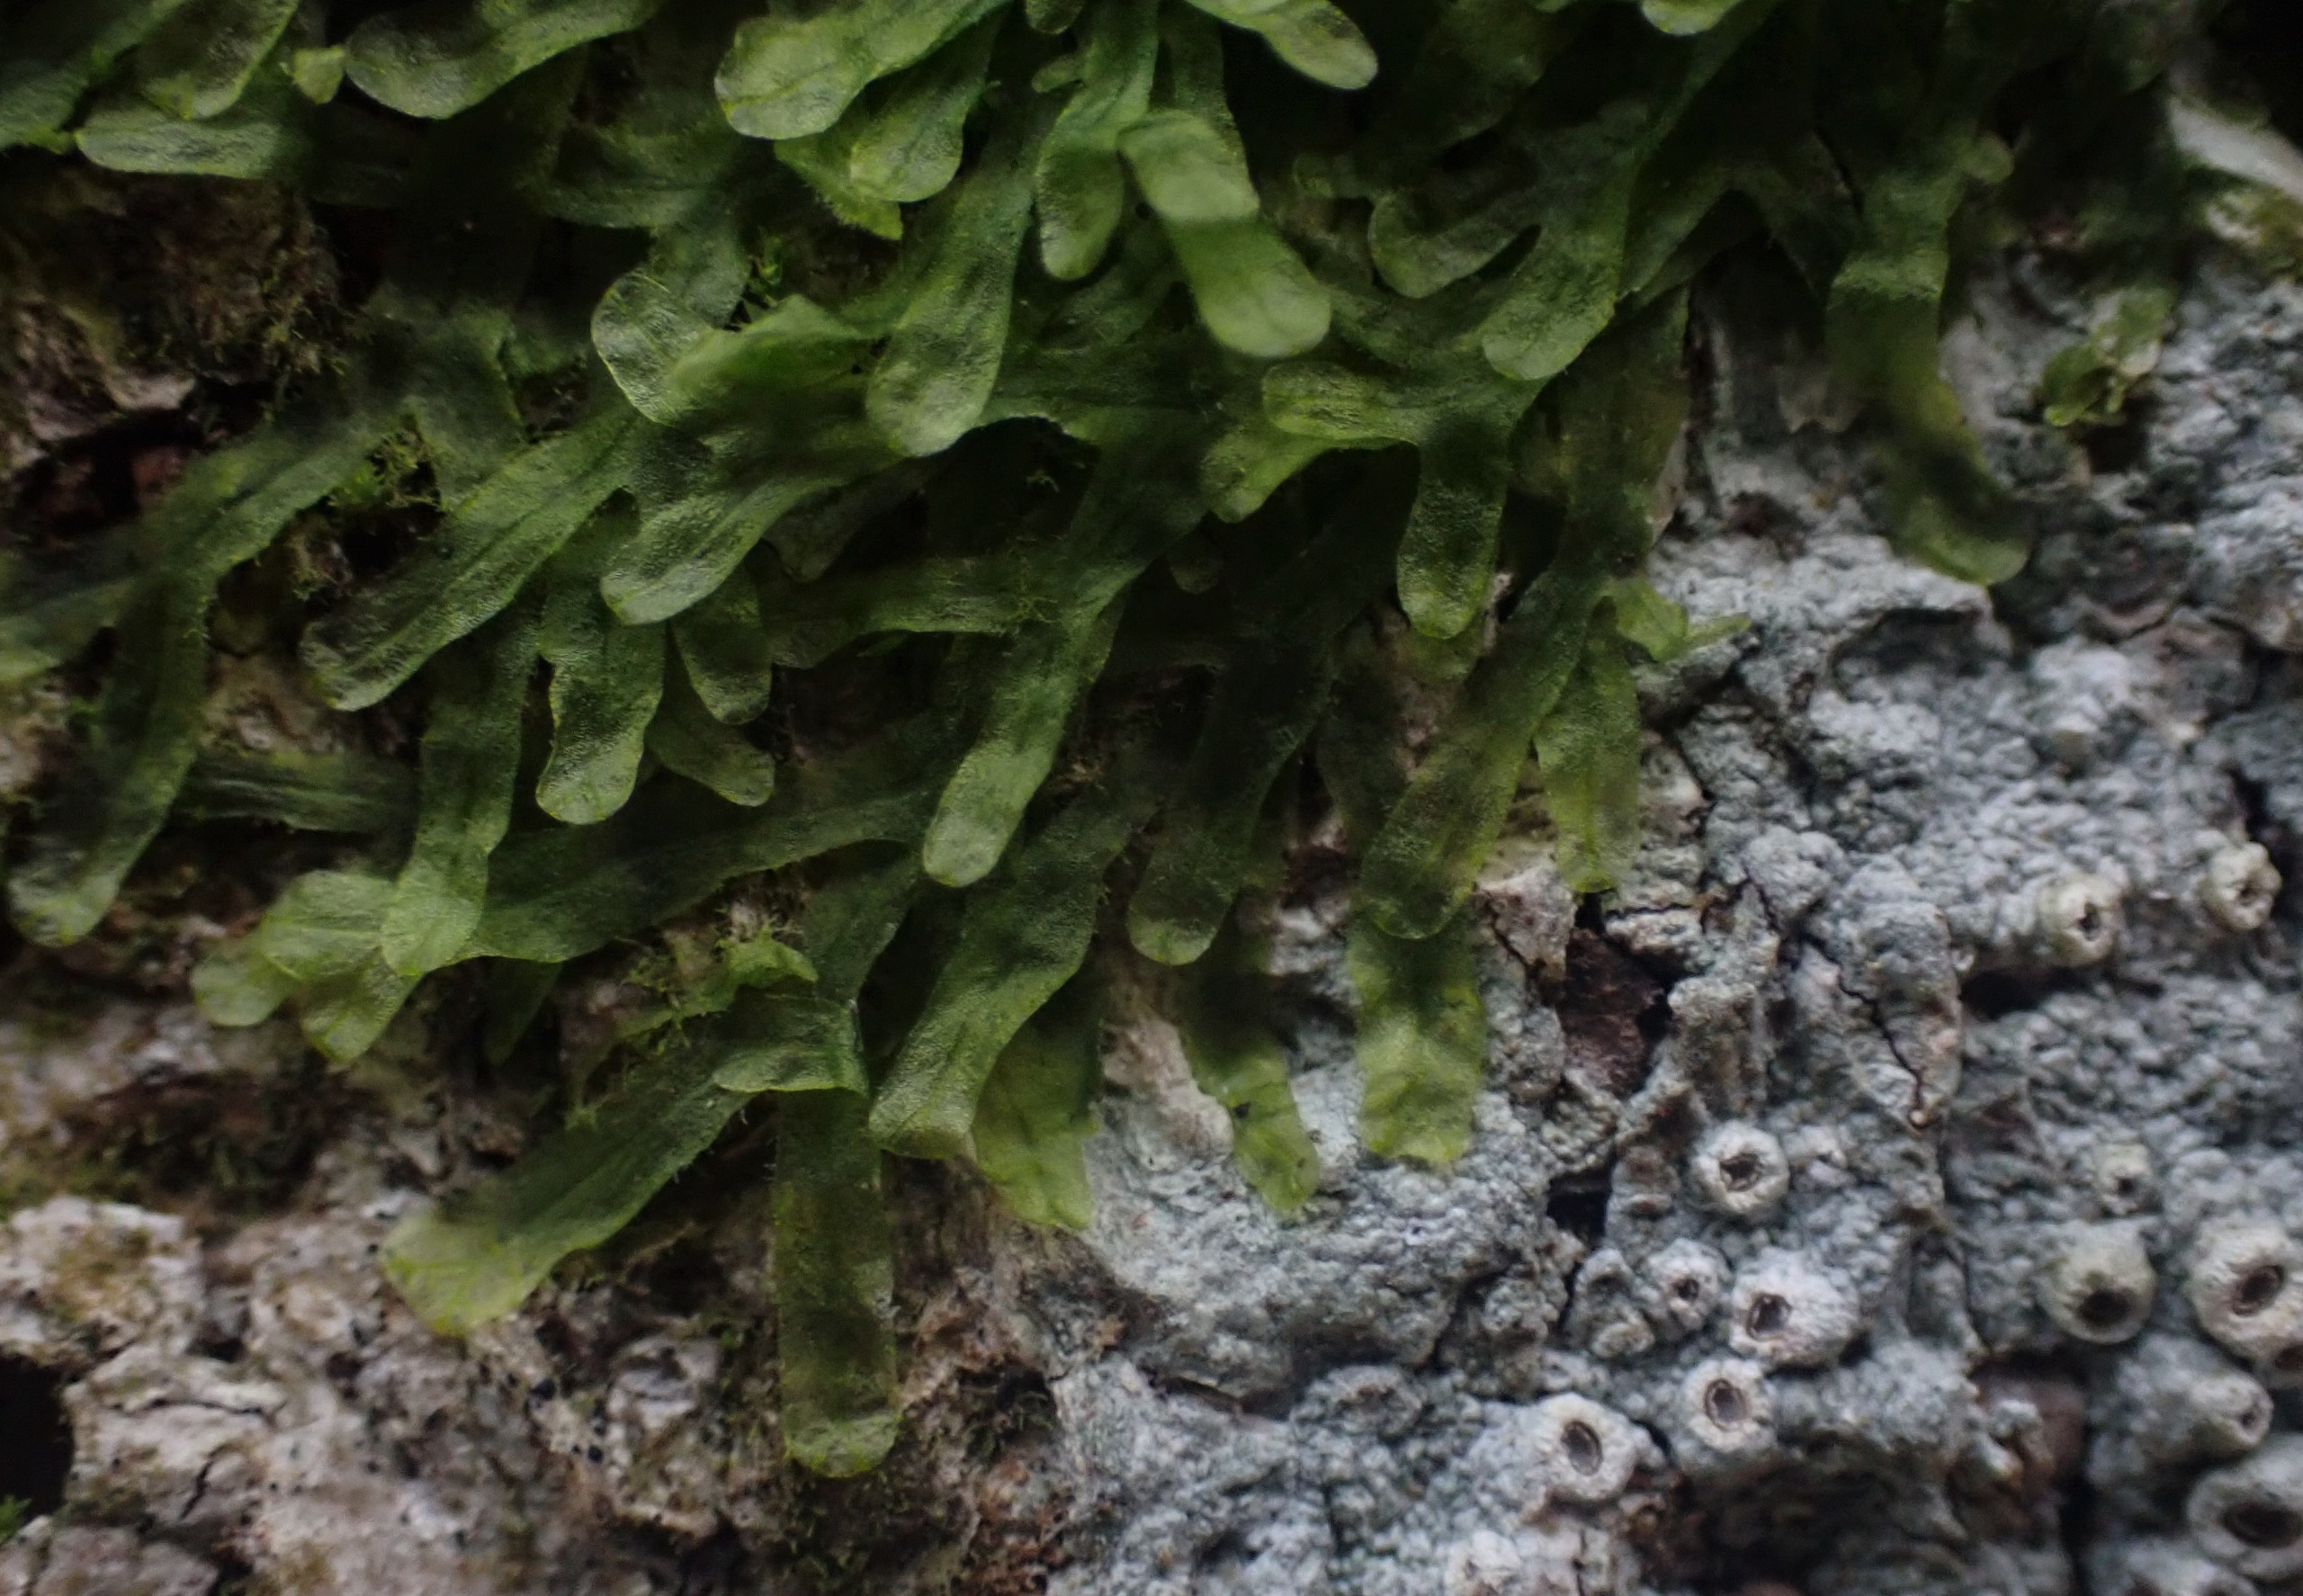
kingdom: Plantae
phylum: Marchantiophyta
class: Jungermanniopsida
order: Metzgeriales
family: Metzgeriaceae
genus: Metzgeria
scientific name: Metzgeria furcata
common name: Almindelig gaffelløv
